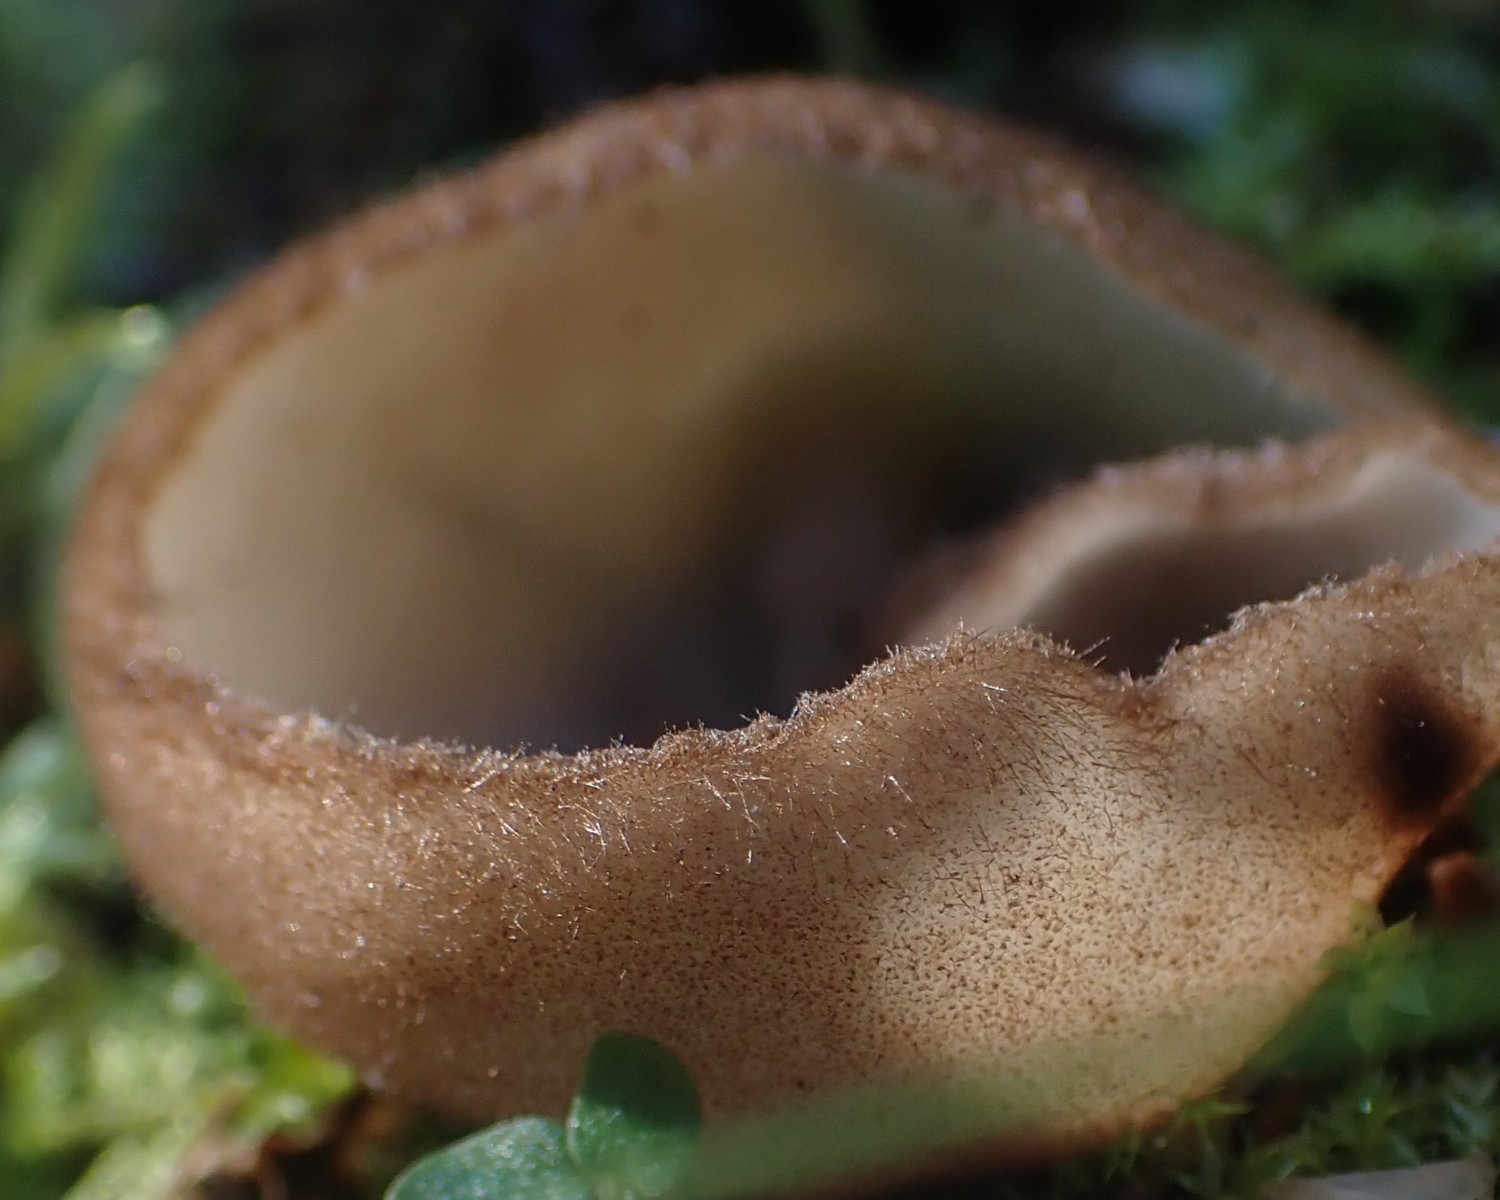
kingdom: Fungi
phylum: Ascomycota
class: Pezizomycetes
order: Pezizales
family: Pyronemataceae
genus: Humaria
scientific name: Humaria hemisphaerica
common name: halvkugleformet børstebæger
